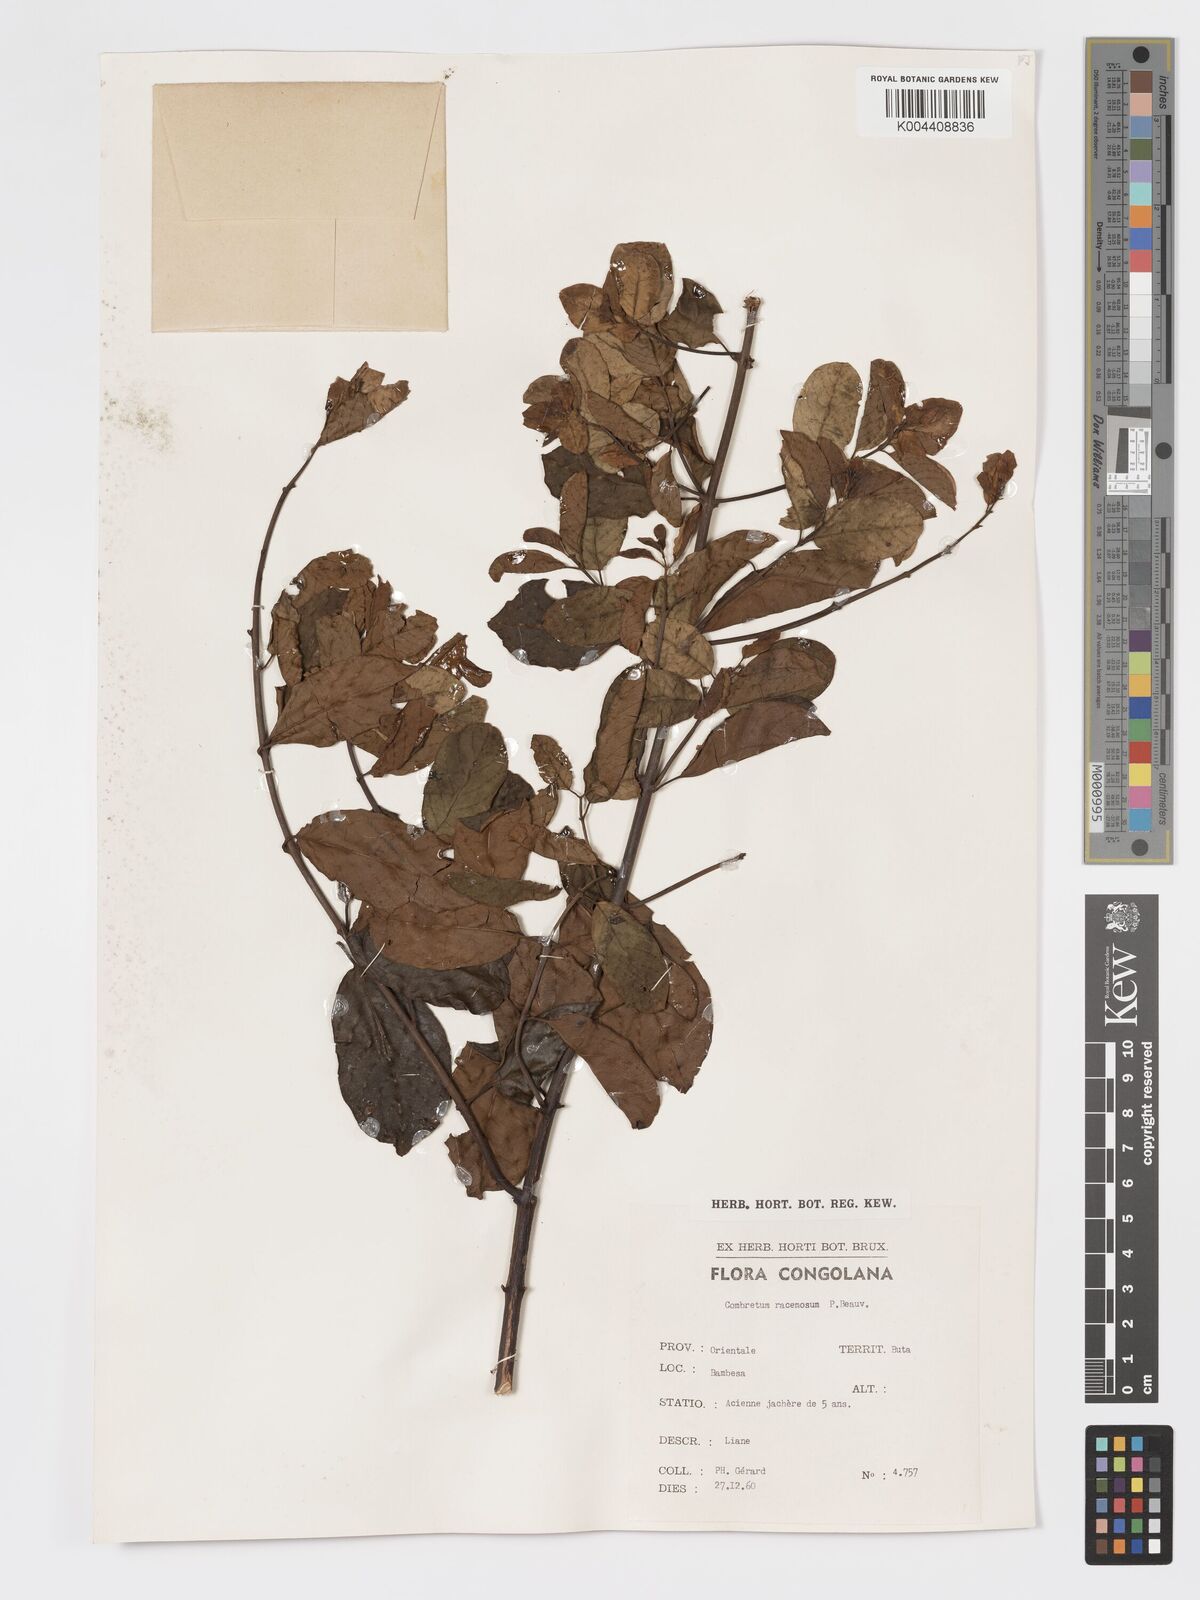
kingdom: Plantae
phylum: Tracheophyta
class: Magnoliopsida
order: Myrtales
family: Combretaceae
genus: Combretum
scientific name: Combretum racemosum
